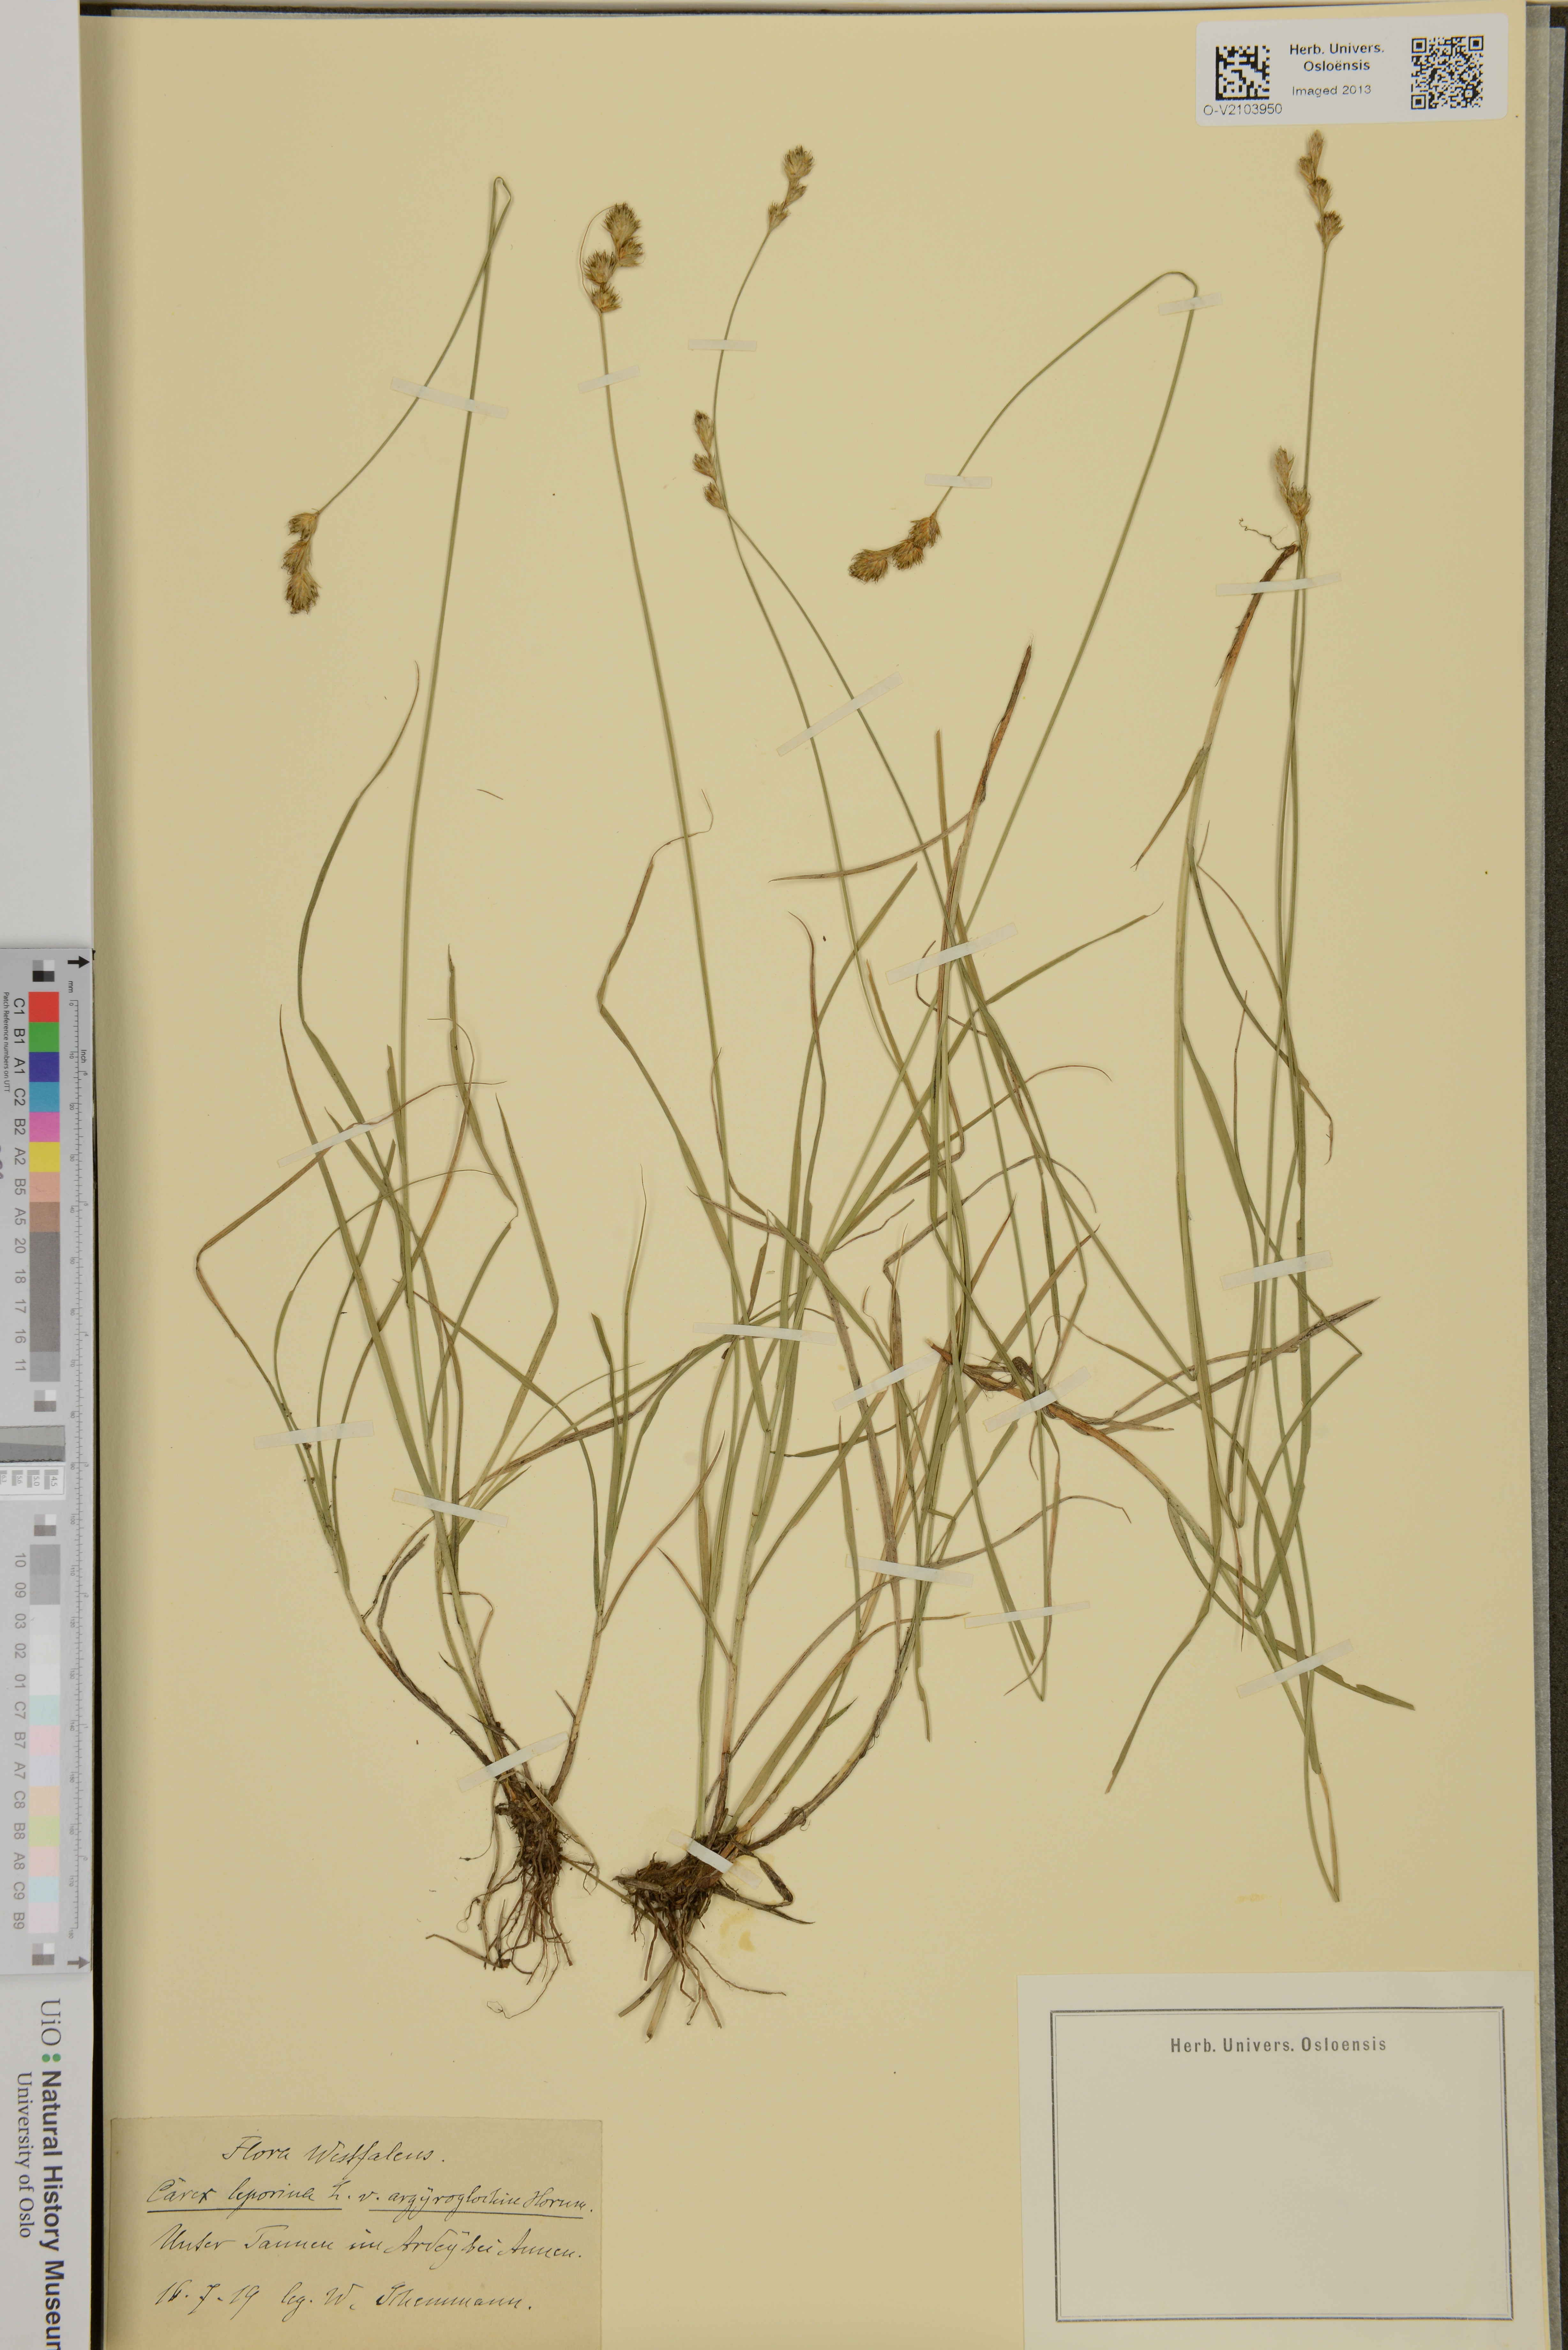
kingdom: Plantae
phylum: Tracheophyta
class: Liliopsida
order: Poales
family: Cyperaceae
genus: Carex
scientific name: Carex leporina
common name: Oval sedge
